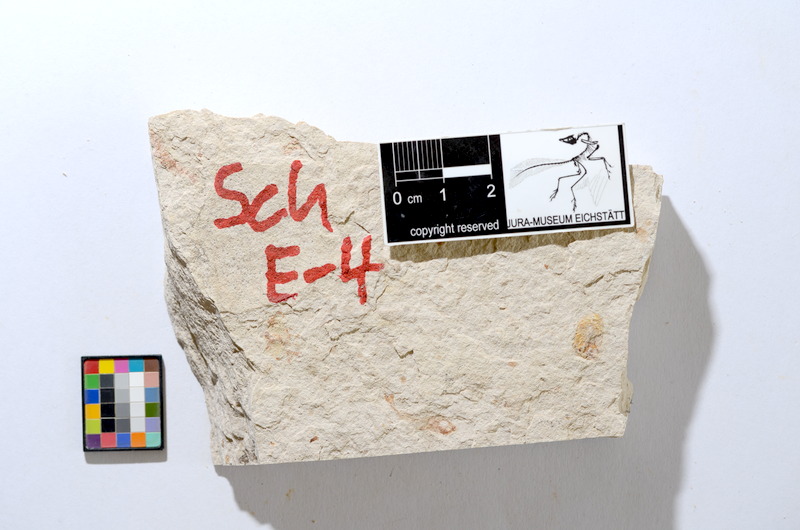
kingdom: Animalia
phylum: Chordata
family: Ascalaboidae
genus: Tharsis
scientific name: Tharsis dubius
